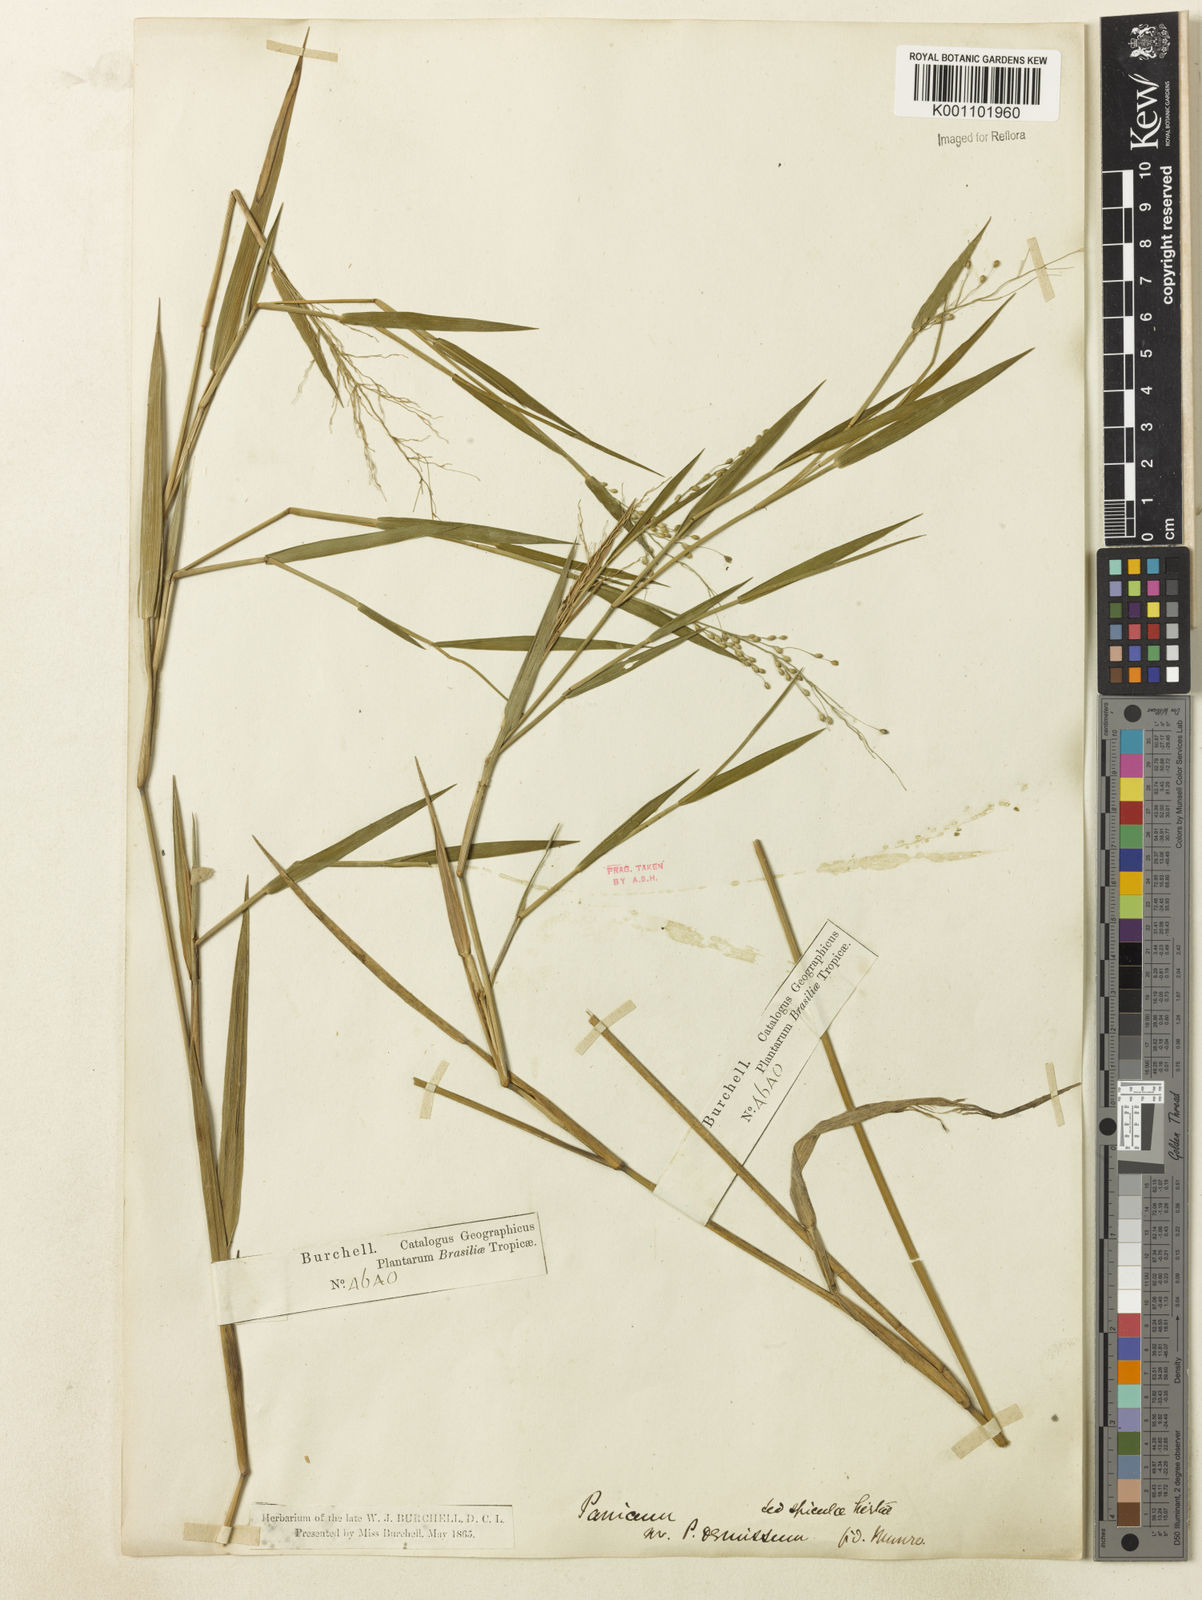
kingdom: Plantae
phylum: Tracheophyta
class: Liliopsida
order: Poales
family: Poaceae
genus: Dichanthelium
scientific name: Dichanthelium sabulorum
